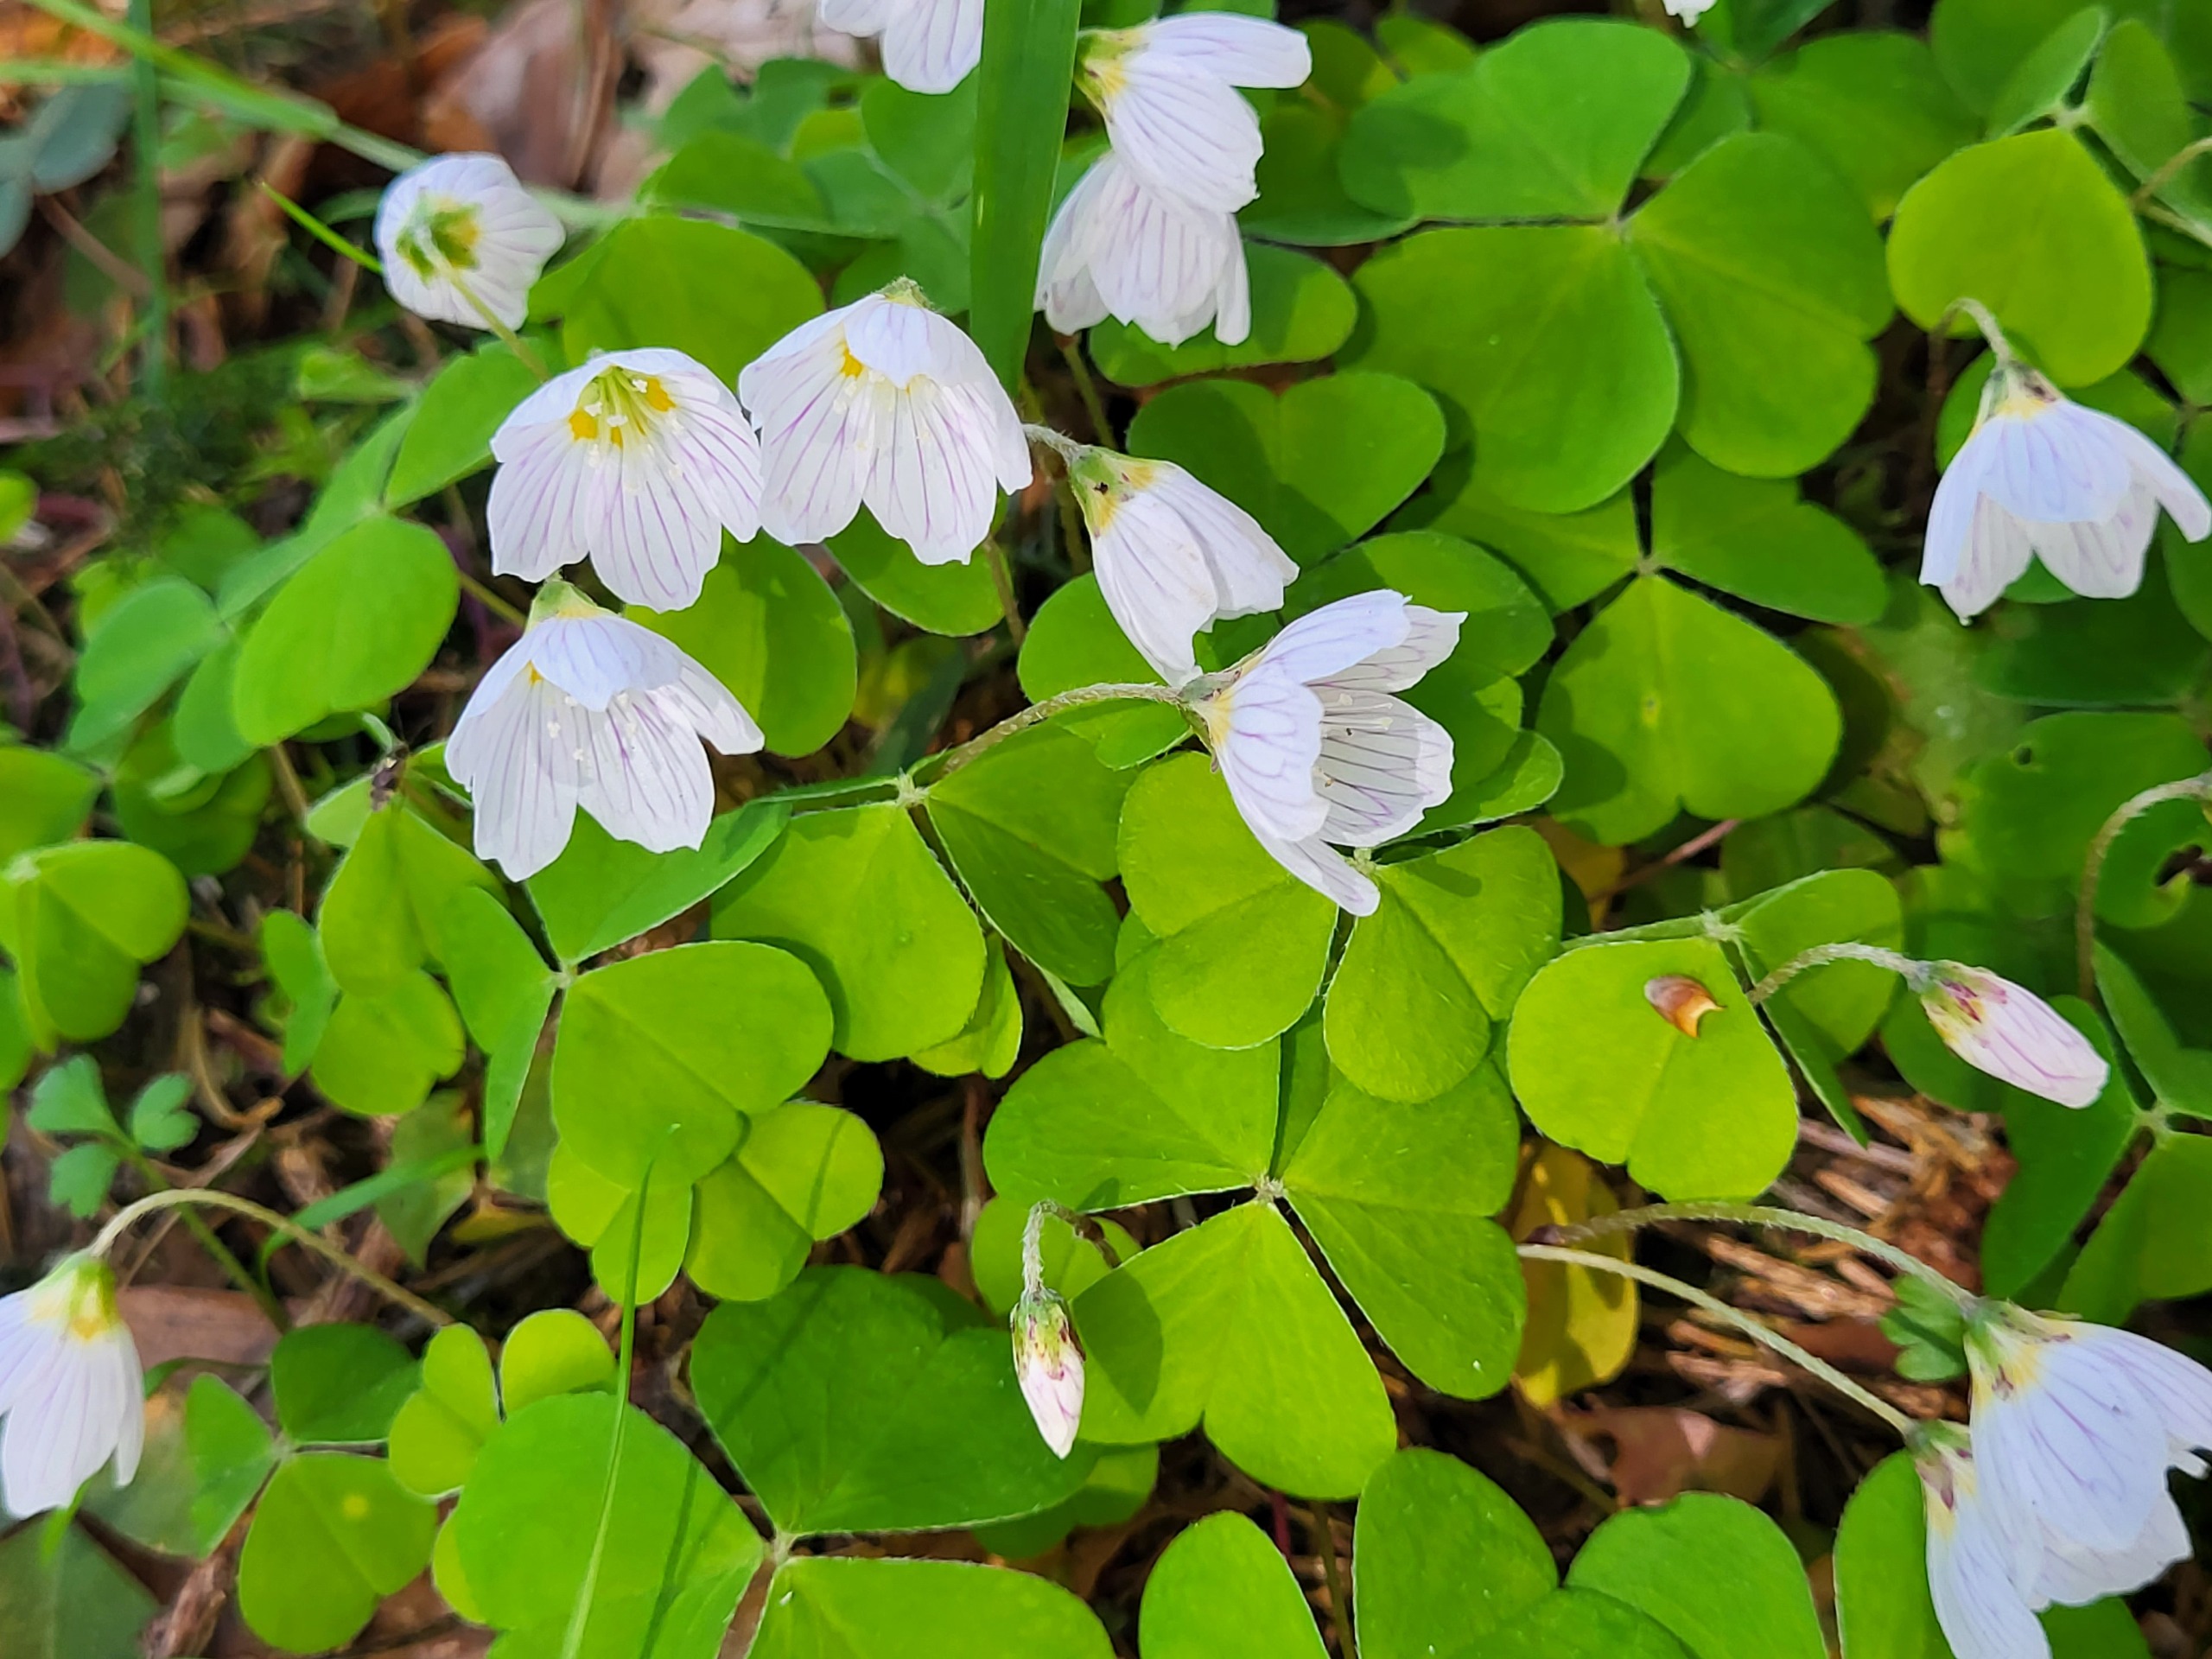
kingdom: Plantae
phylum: Tracheophyta
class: Magnoliopsida
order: Oxalidales
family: Oxalidaceae
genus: Oxalis
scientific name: Oxalis acetosella
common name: Skovsyre
